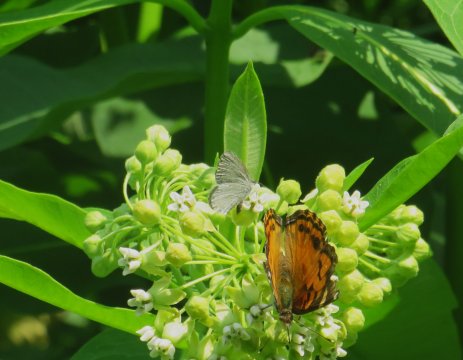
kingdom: Animalia
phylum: Arthropoda
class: Insecta
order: Lepidoptera
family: Lycaenidae
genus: Cyaniris
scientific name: Cyaniris neglecta
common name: Summer Azure
